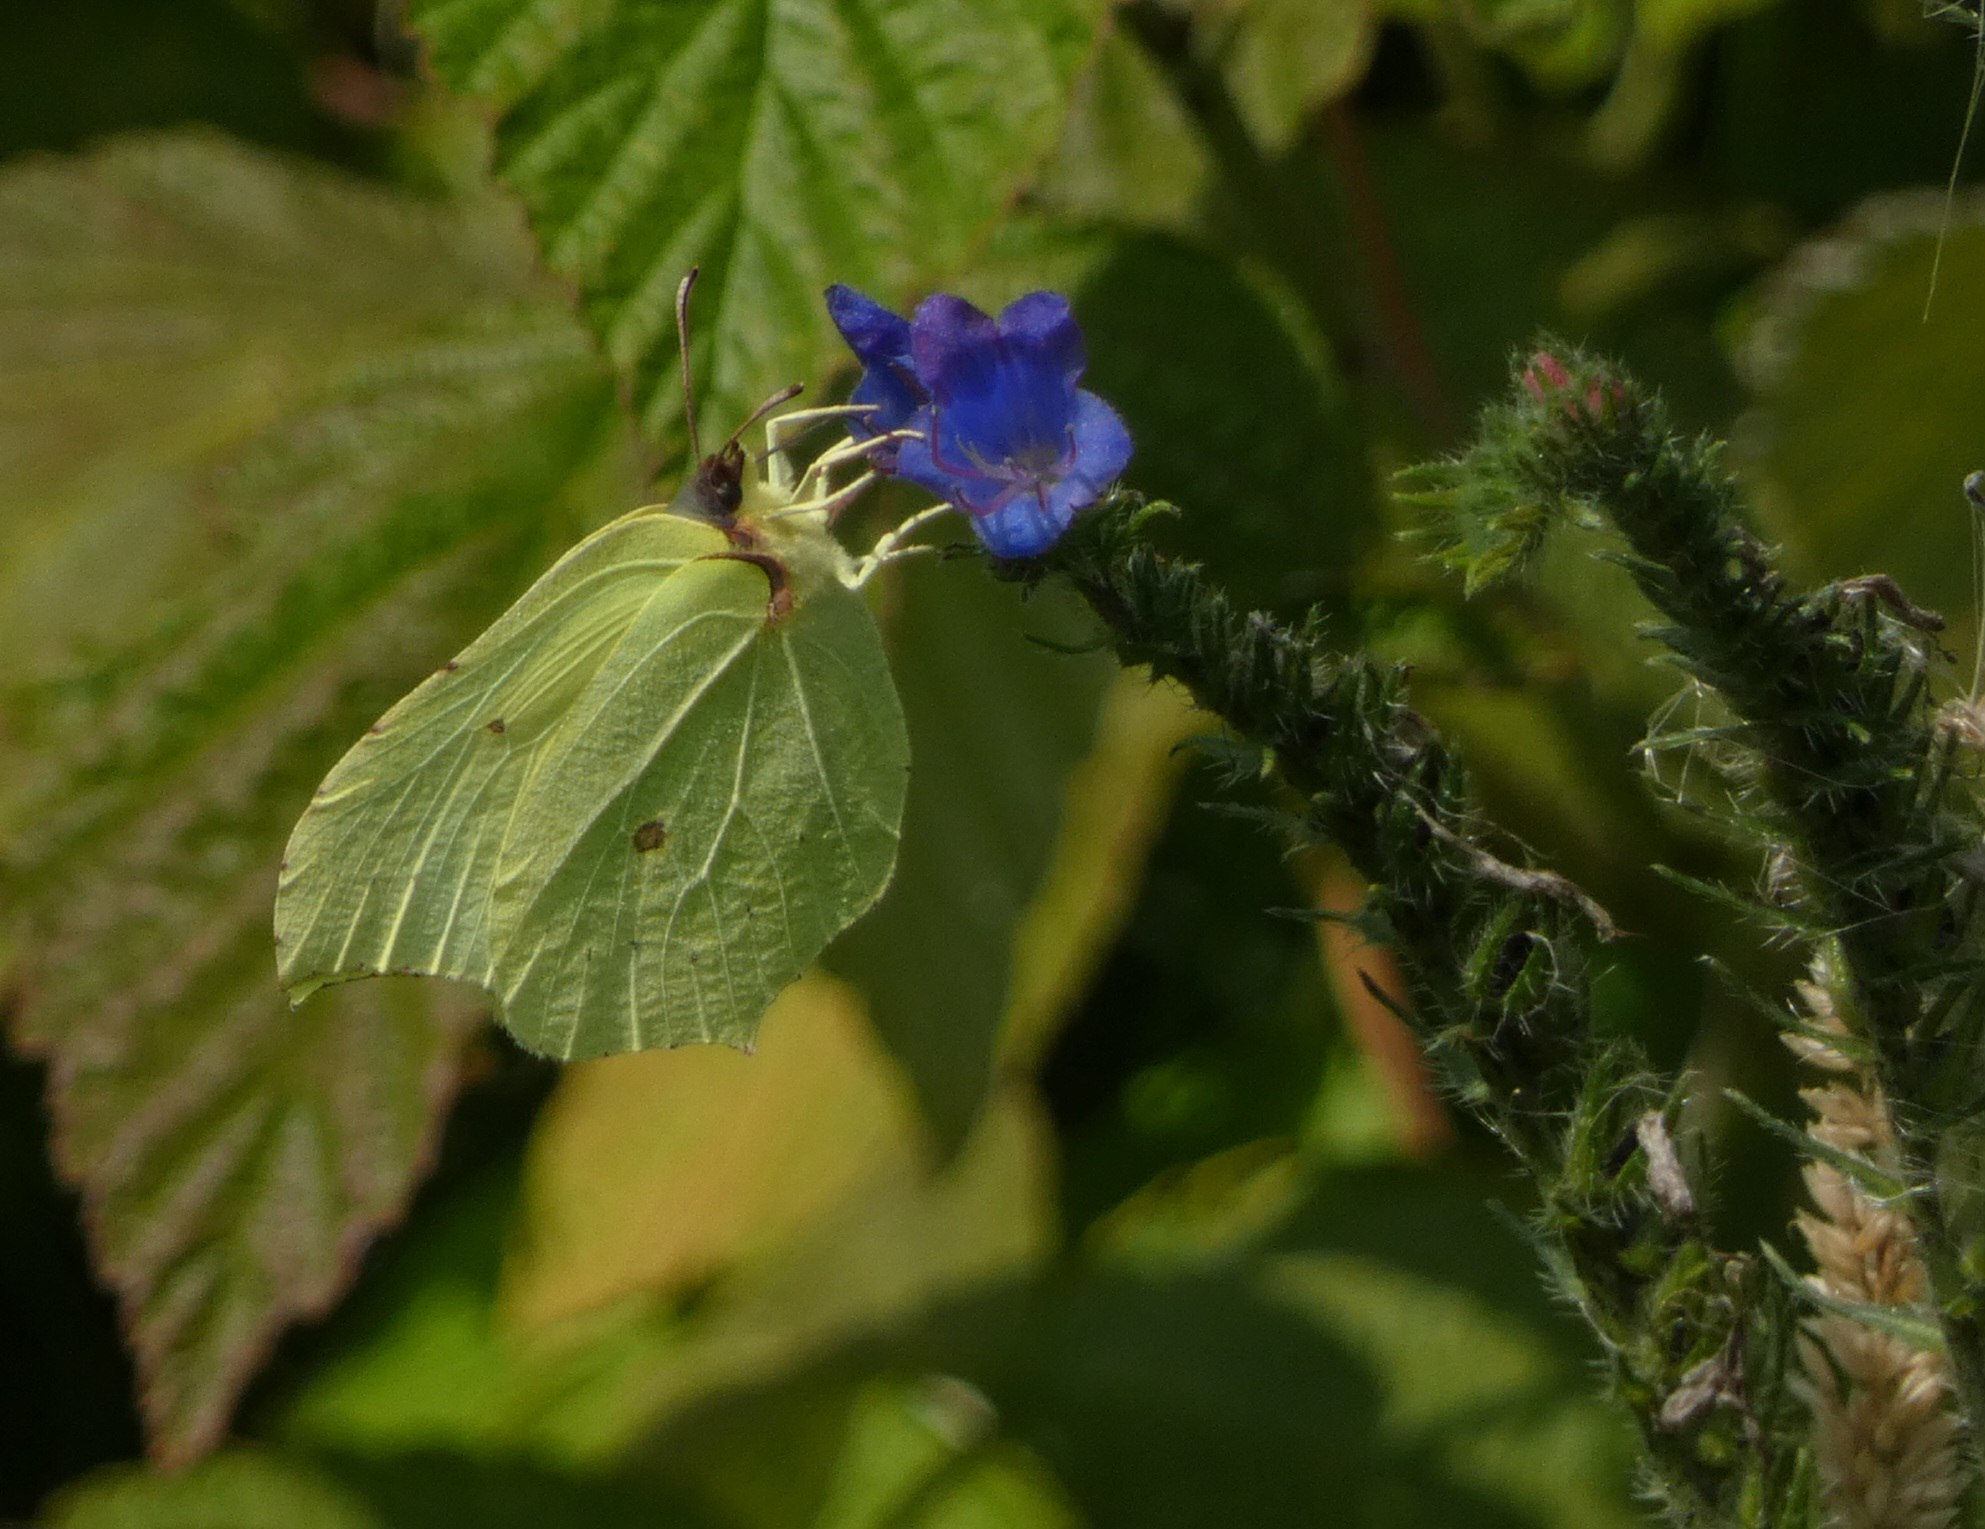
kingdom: Animalia
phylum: Arthropoda
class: Insecta
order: Lepidoptera
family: Pieridae
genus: Gonepteryx
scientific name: Gonepteryx rhamni
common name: Citronsommerfugl
